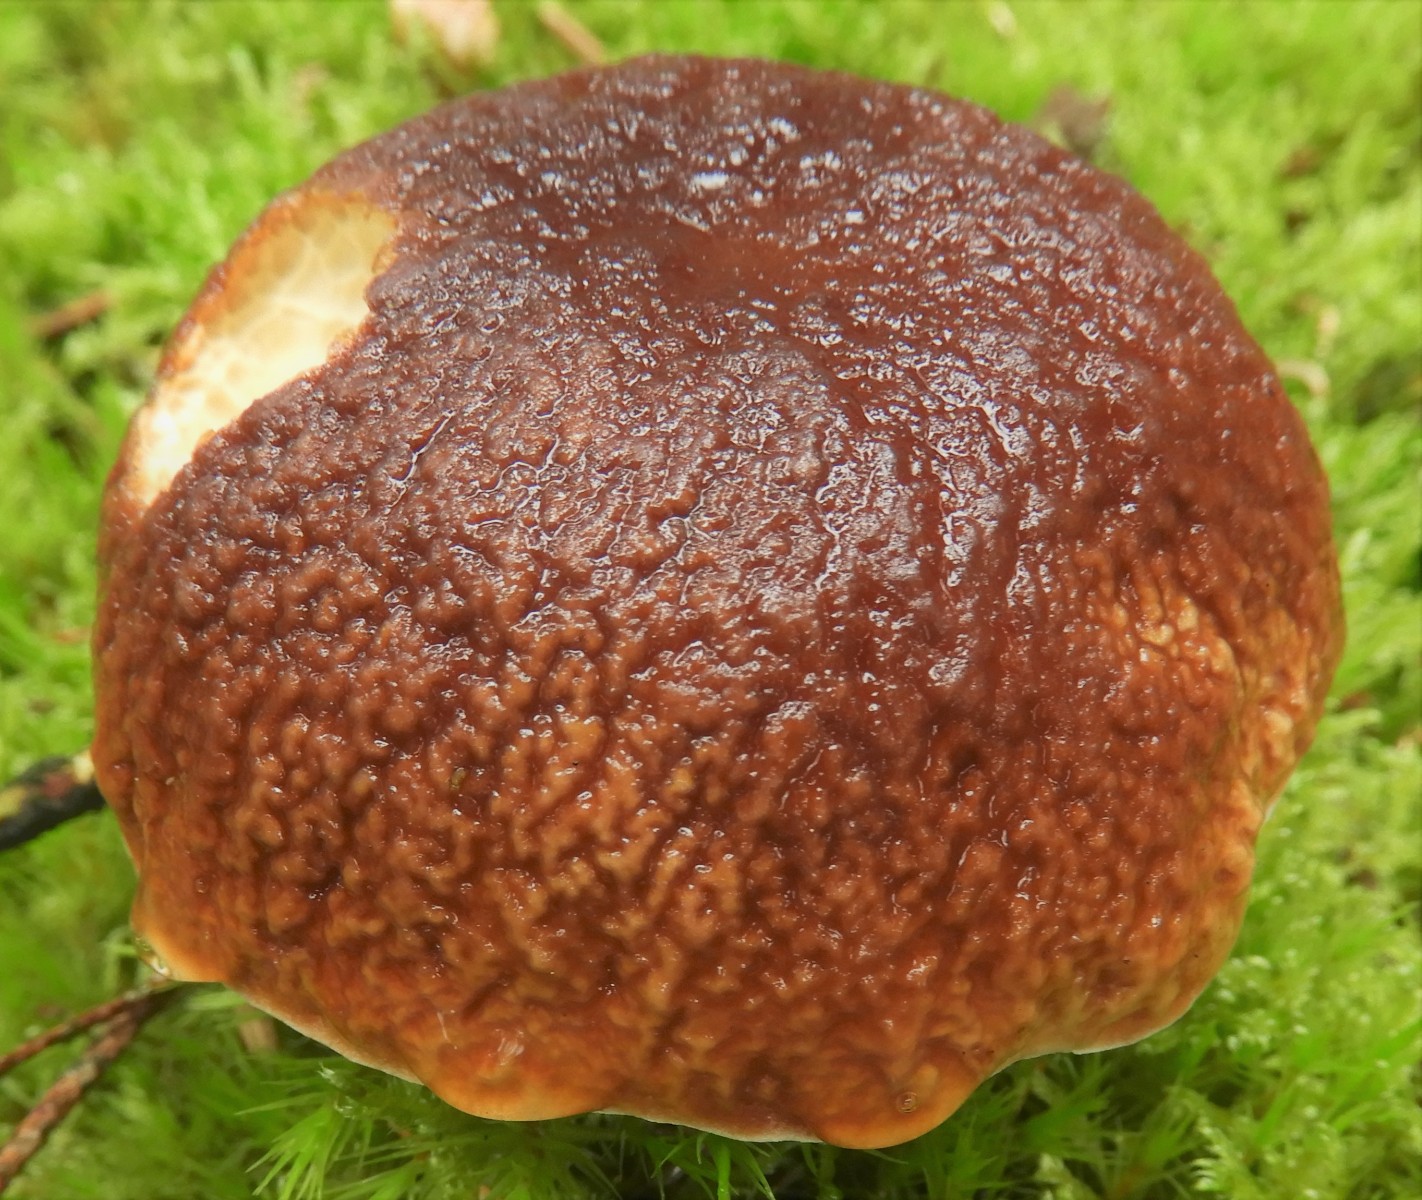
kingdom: Fungi
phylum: Basidiomycota
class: Agaricomycetes
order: Boletales
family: Boletaceae
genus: Boletus
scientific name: Boletus edulis
